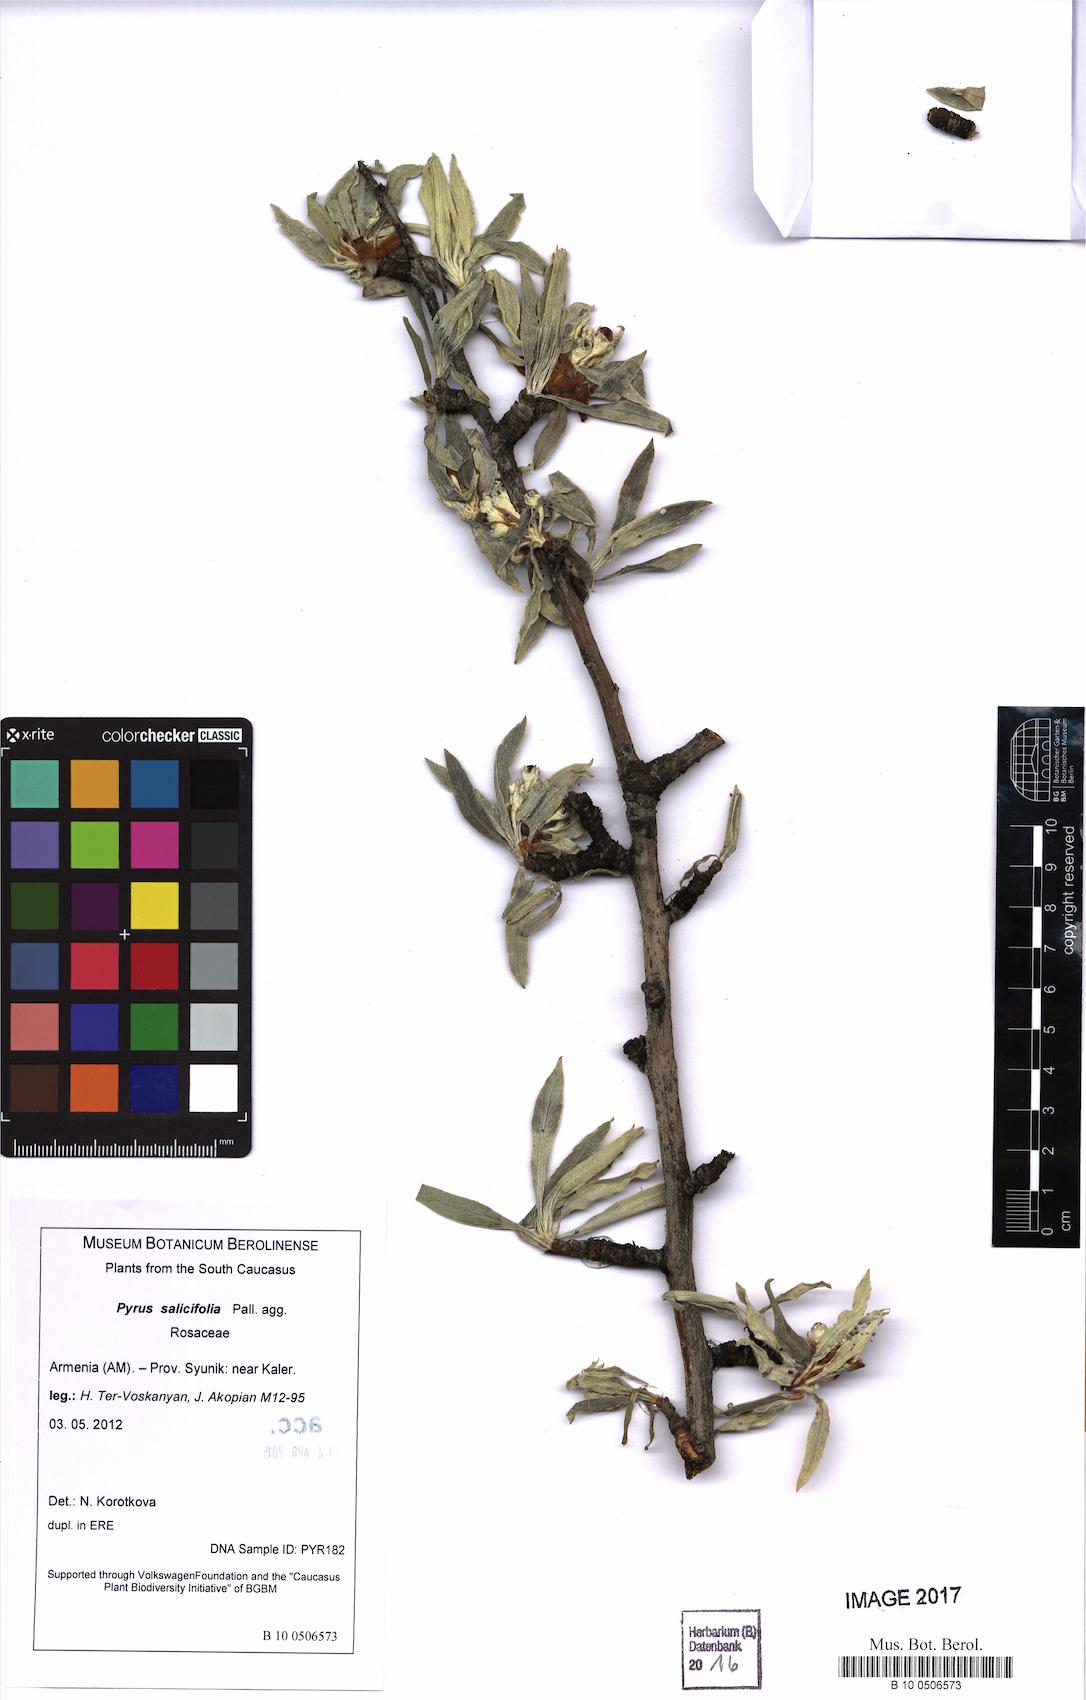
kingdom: Plantae
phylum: Tracheophyta
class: Magnoliopsida
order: Rosales
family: Rosaceae
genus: Pyrus
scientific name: Pyrus salicifolia
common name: Willow-leaved pear
